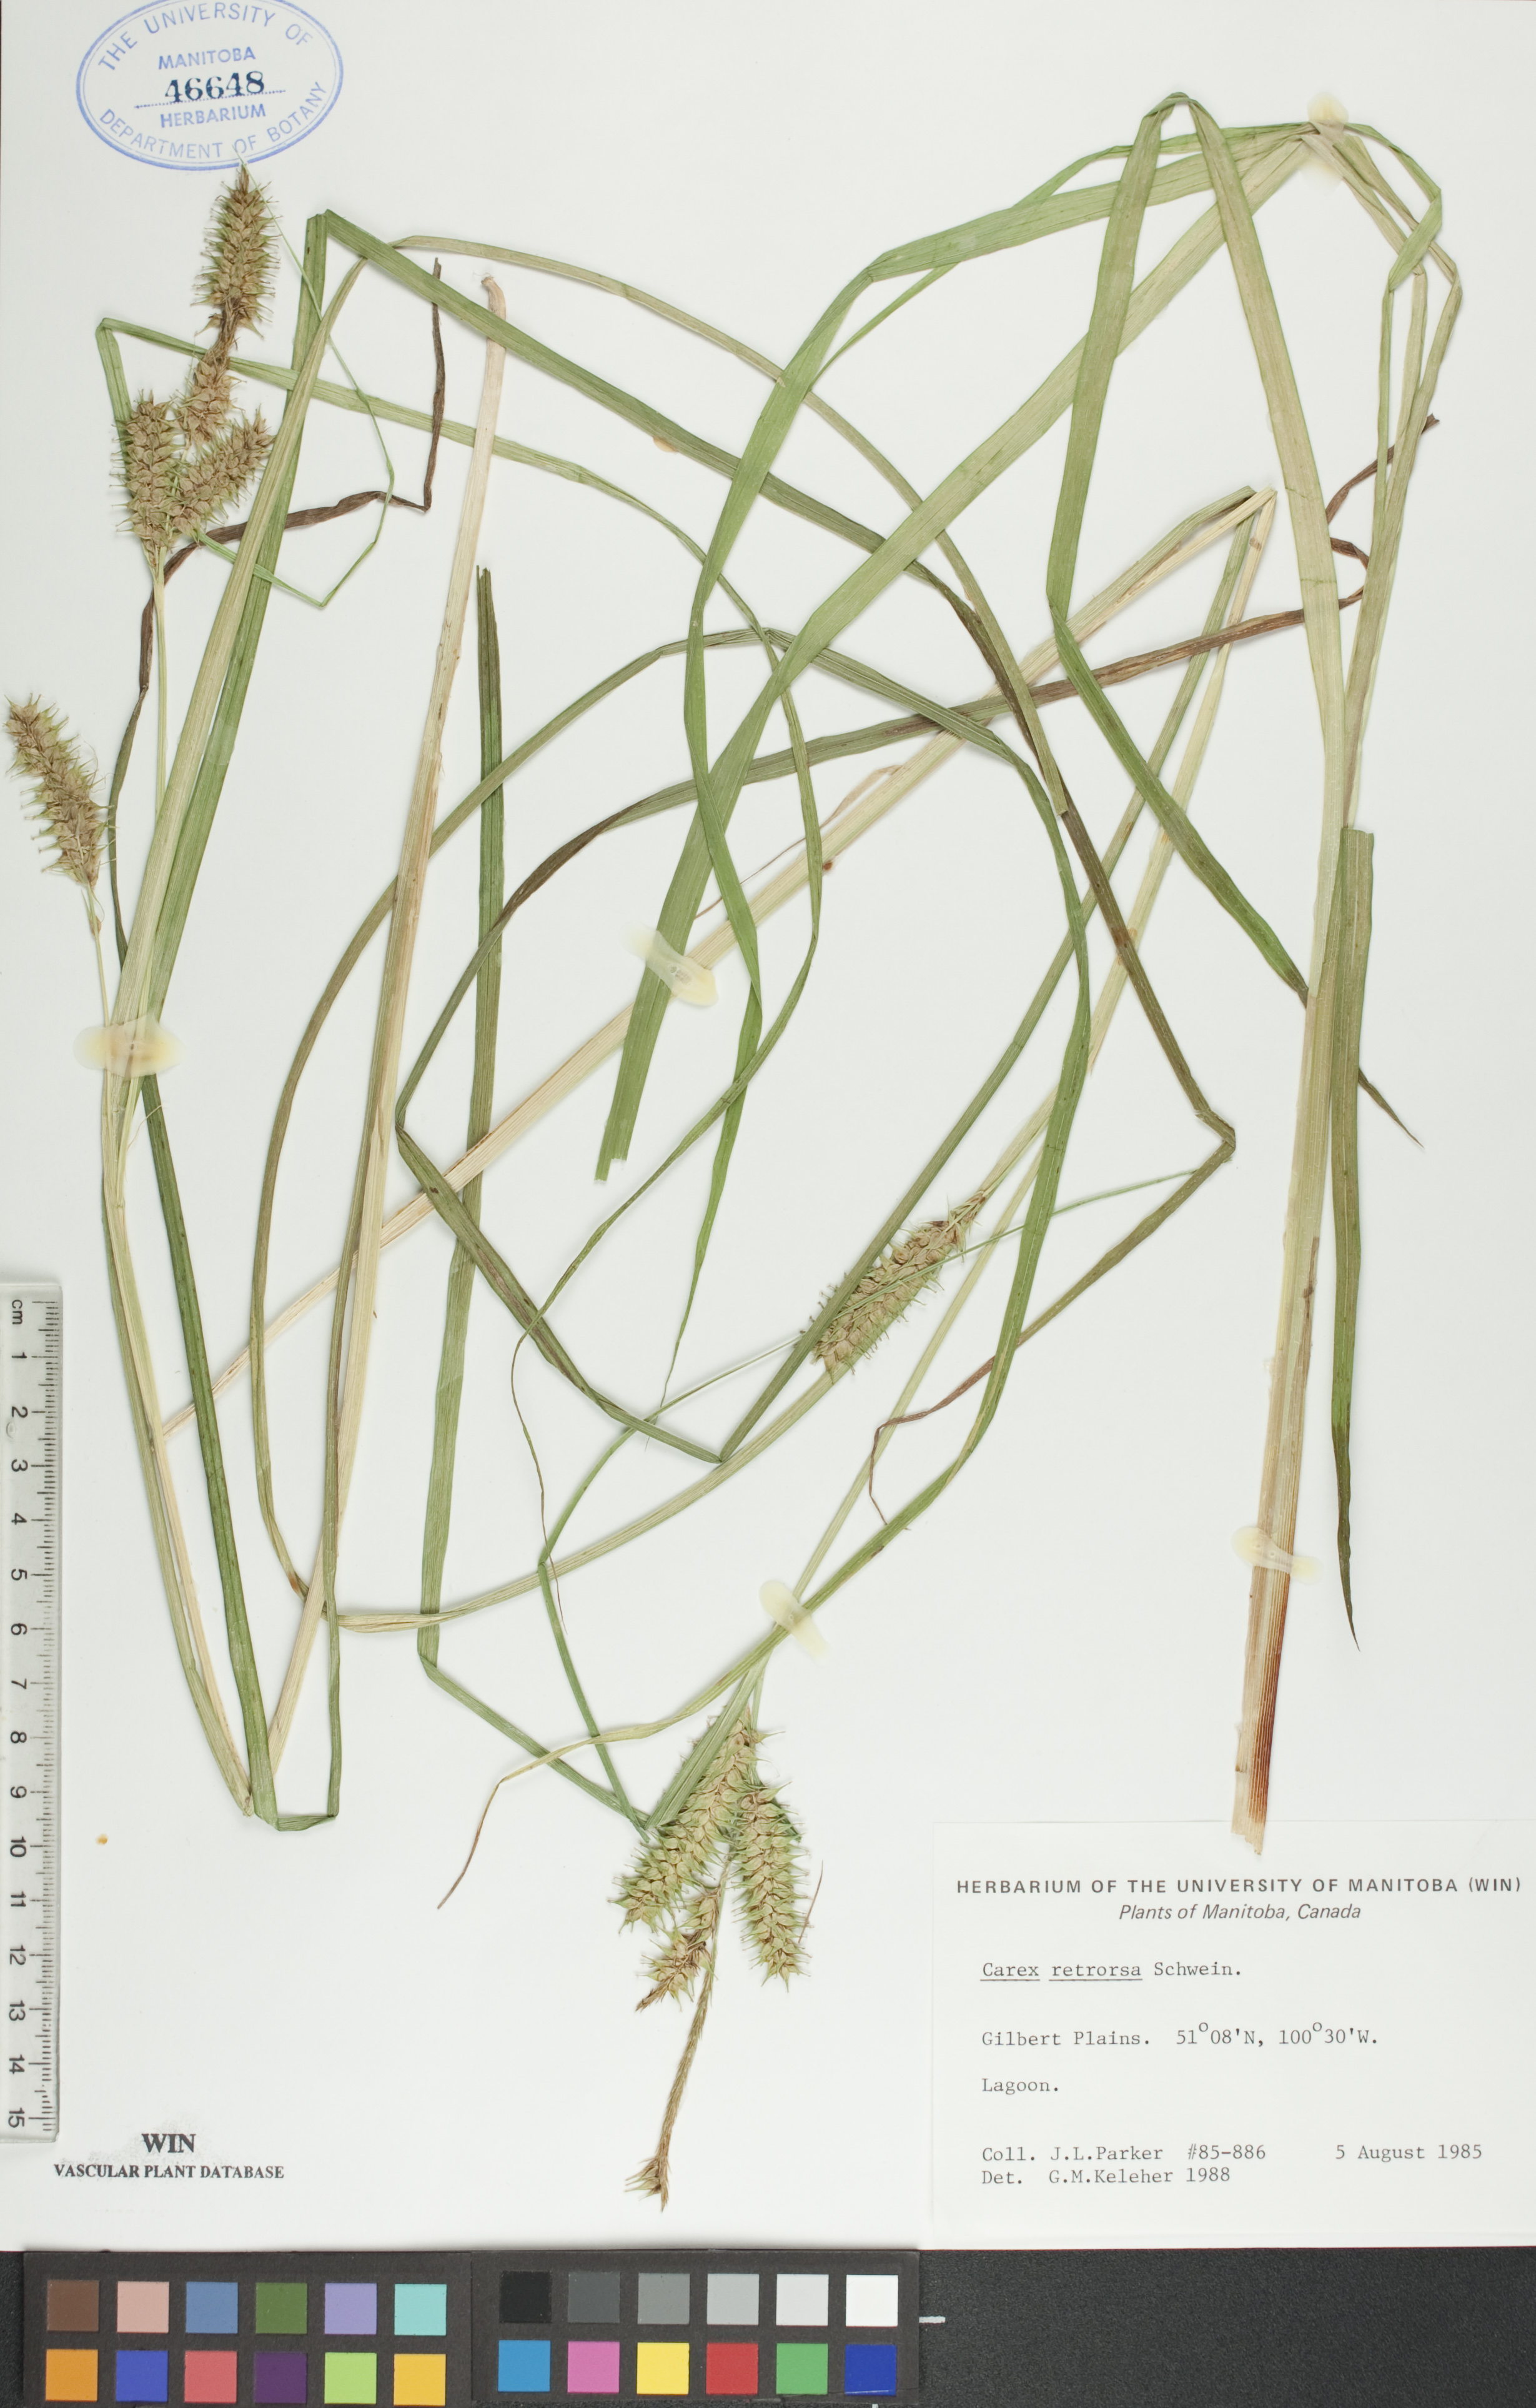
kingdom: Plantae
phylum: Tracheophyta
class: Liliopsida
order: Poales
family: Cyperaceae
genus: Carex
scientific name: Carex retrorsa
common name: Knot-sheath sedge
